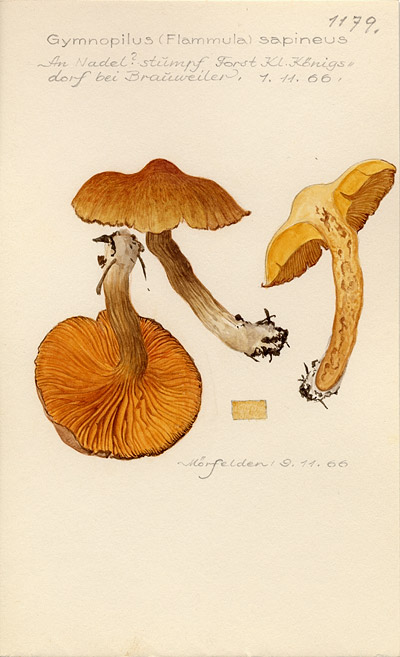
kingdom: Fungi
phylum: Basidiomycota
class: Agaricomycetes
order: Agaricales
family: Hymenogastraceae
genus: Gymnopilus
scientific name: Gymnopilus sapineus
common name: Scaly rustgill
